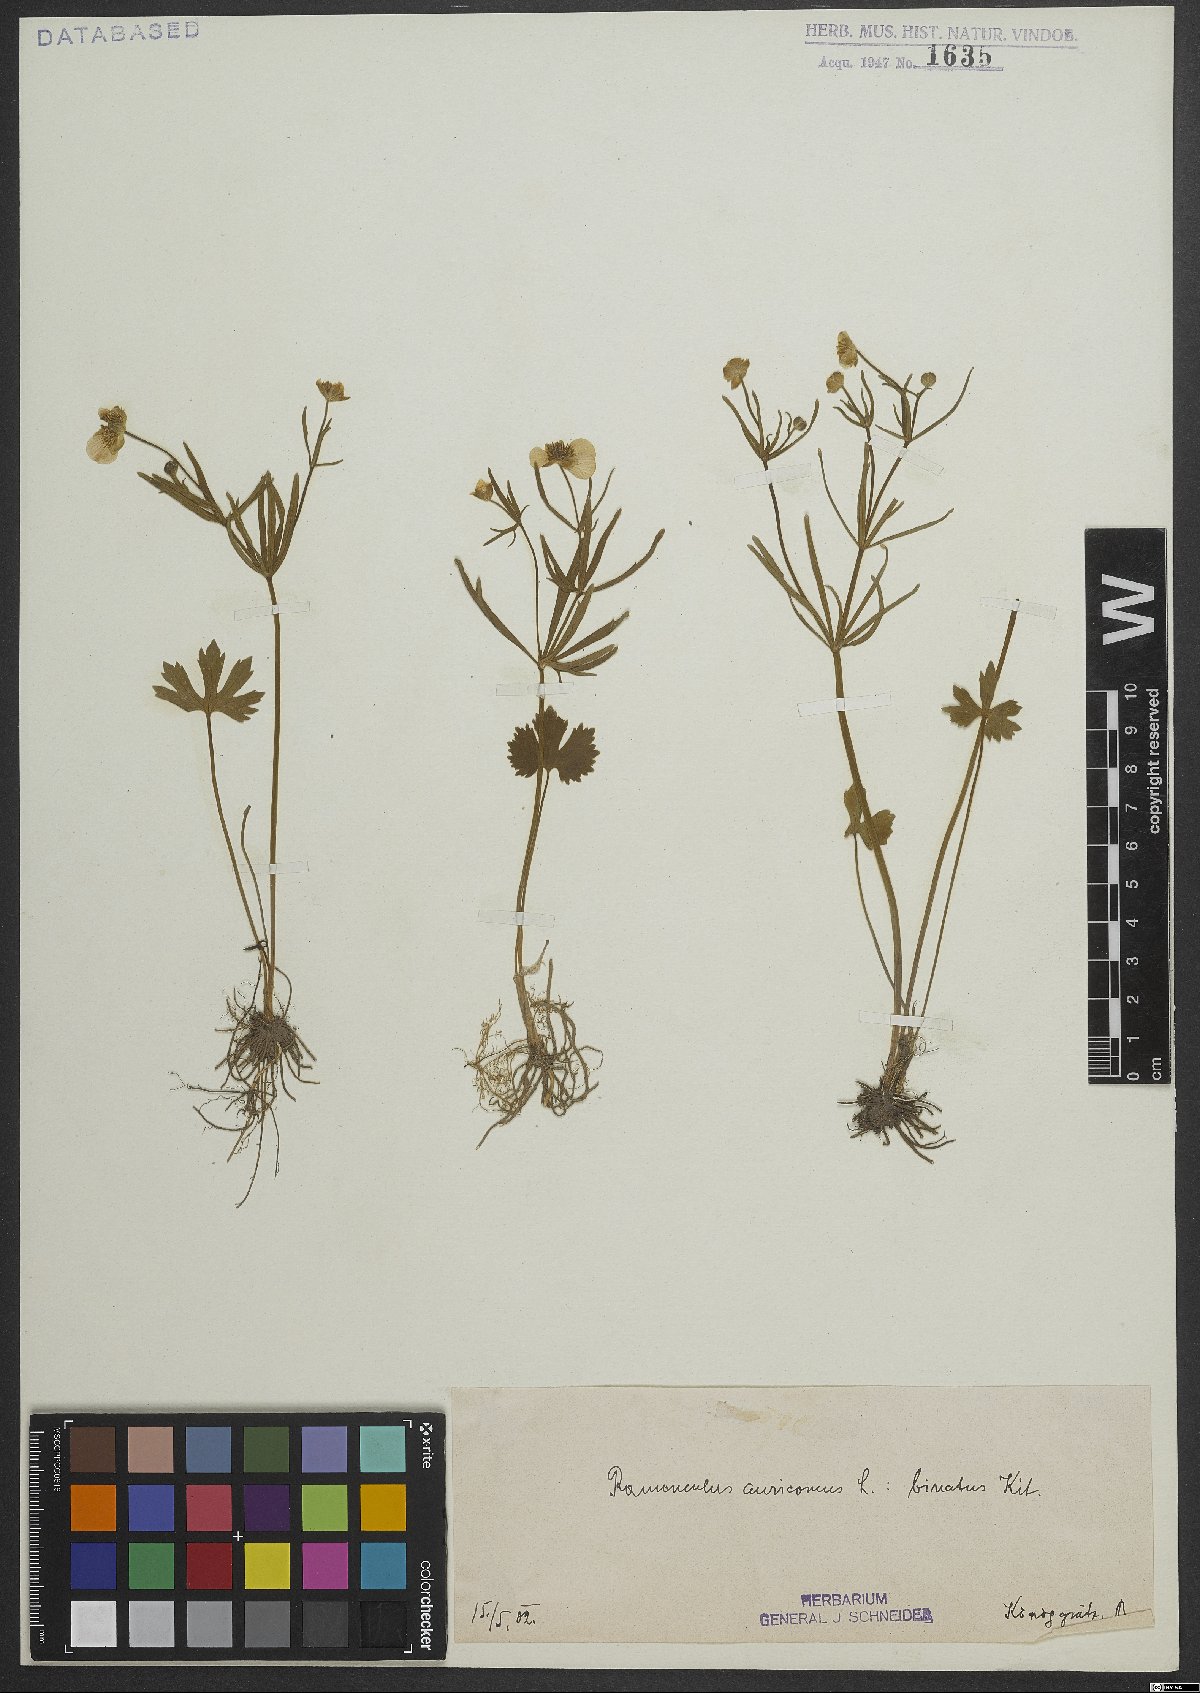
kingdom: Plantae
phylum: Tracheophyta
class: Magnoliopsida
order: Ranunculales
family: Ranunculaceae
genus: Ranunculus
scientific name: Ranunculus binatus
